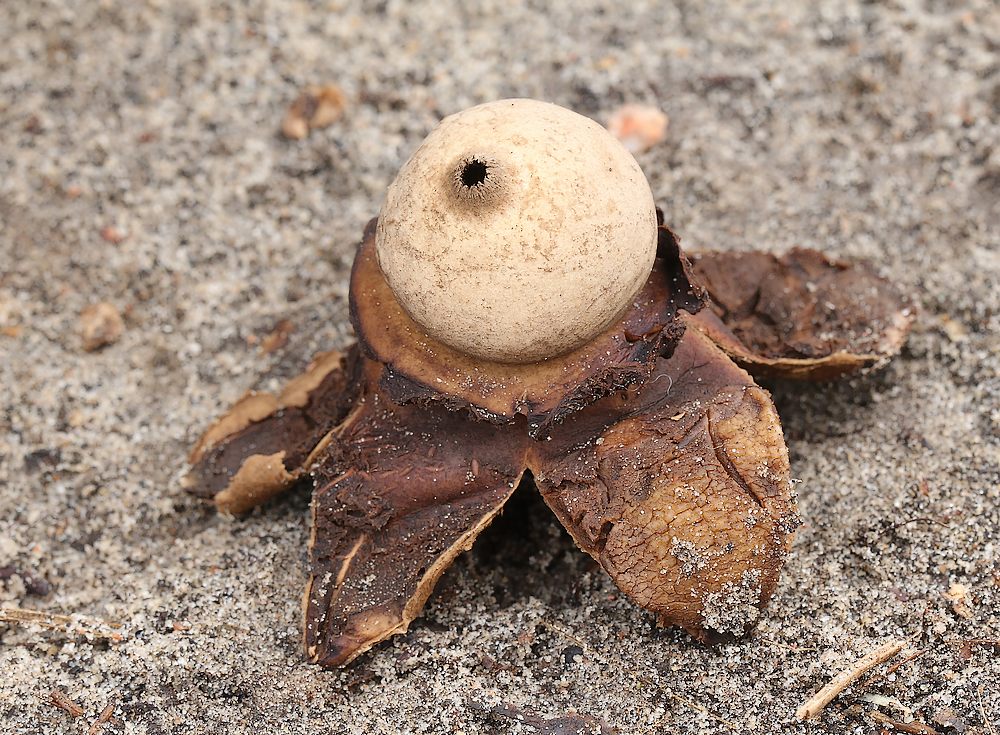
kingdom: Fungi
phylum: Basidiomycota
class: Agaricomycetes
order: Geastrales
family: Geastraceae
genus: Geastrum
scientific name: Geastrum michelianum
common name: kødet stjernebold
